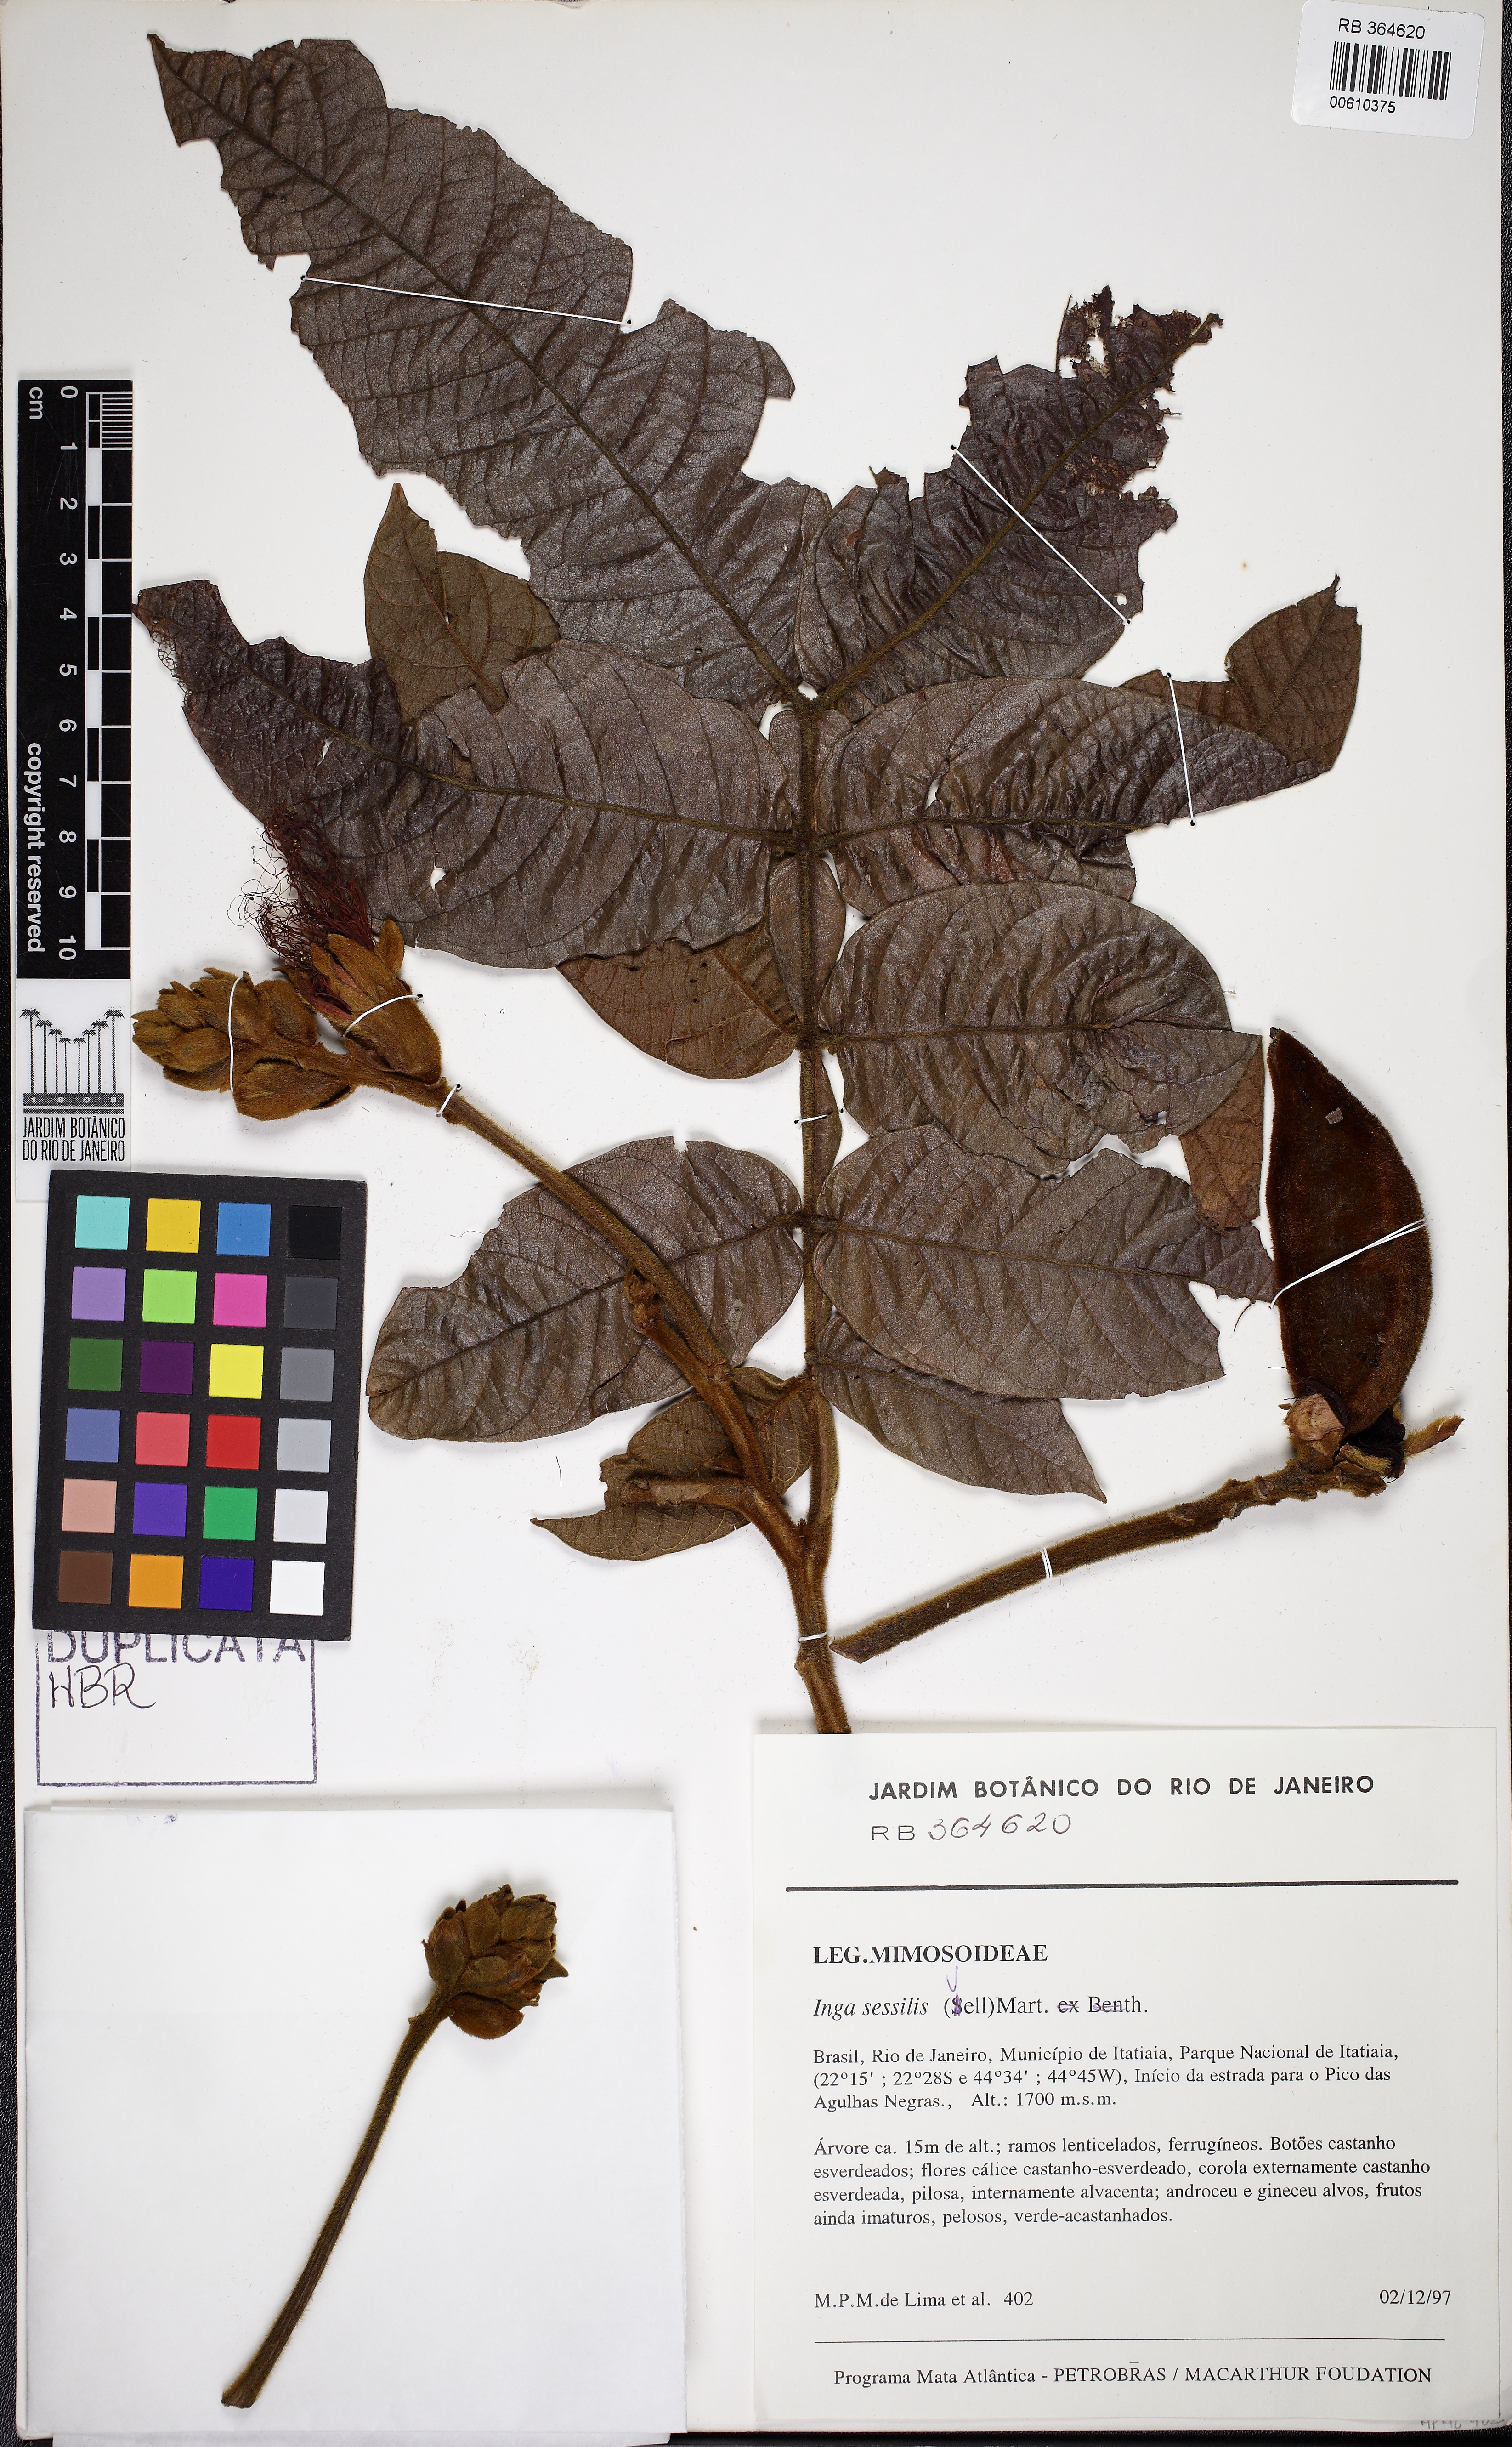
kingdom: Plantae
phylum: Tracheophyta
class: Magnoliopsida
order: Fabales
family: Fabaceae
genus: Inga
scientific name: Inga sessilis
